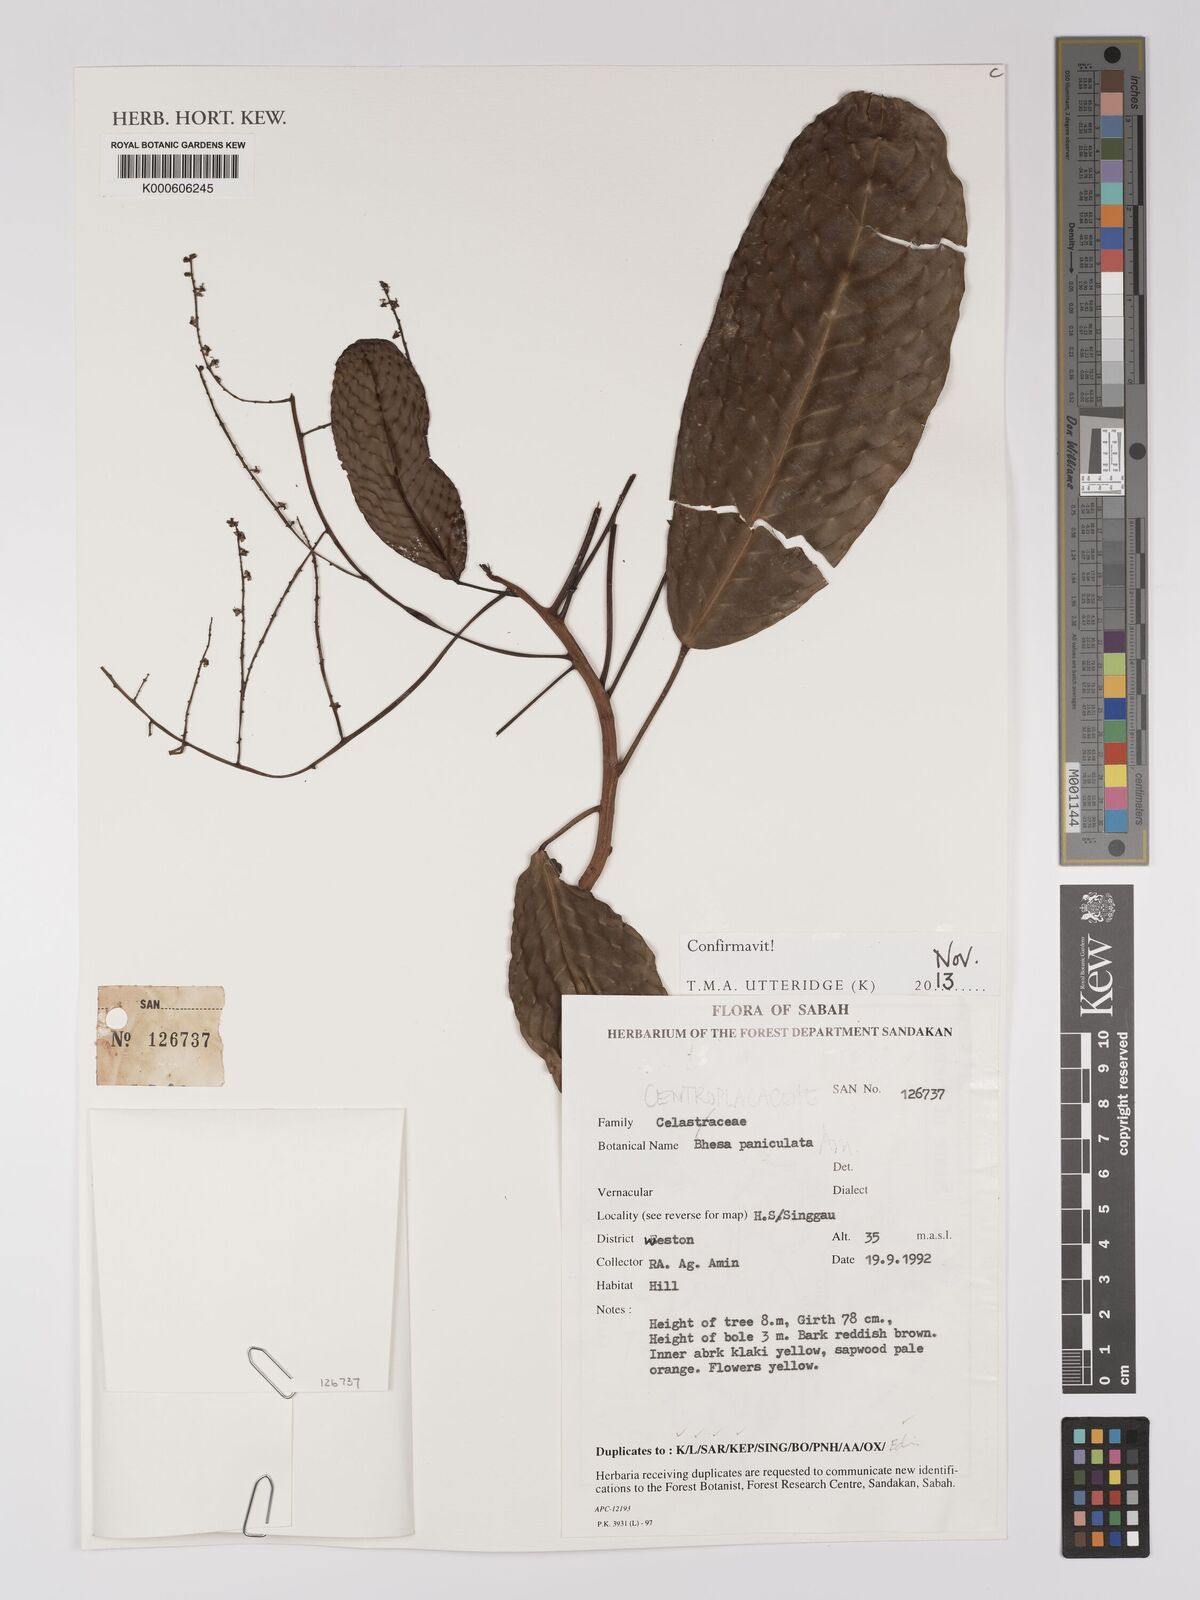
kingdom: Plantae
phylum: Tracheophyta
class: Magnoliopsida
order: Malpighiales
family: Centroplacaceae
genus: Bhesa
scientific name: Bhesa paniculata
